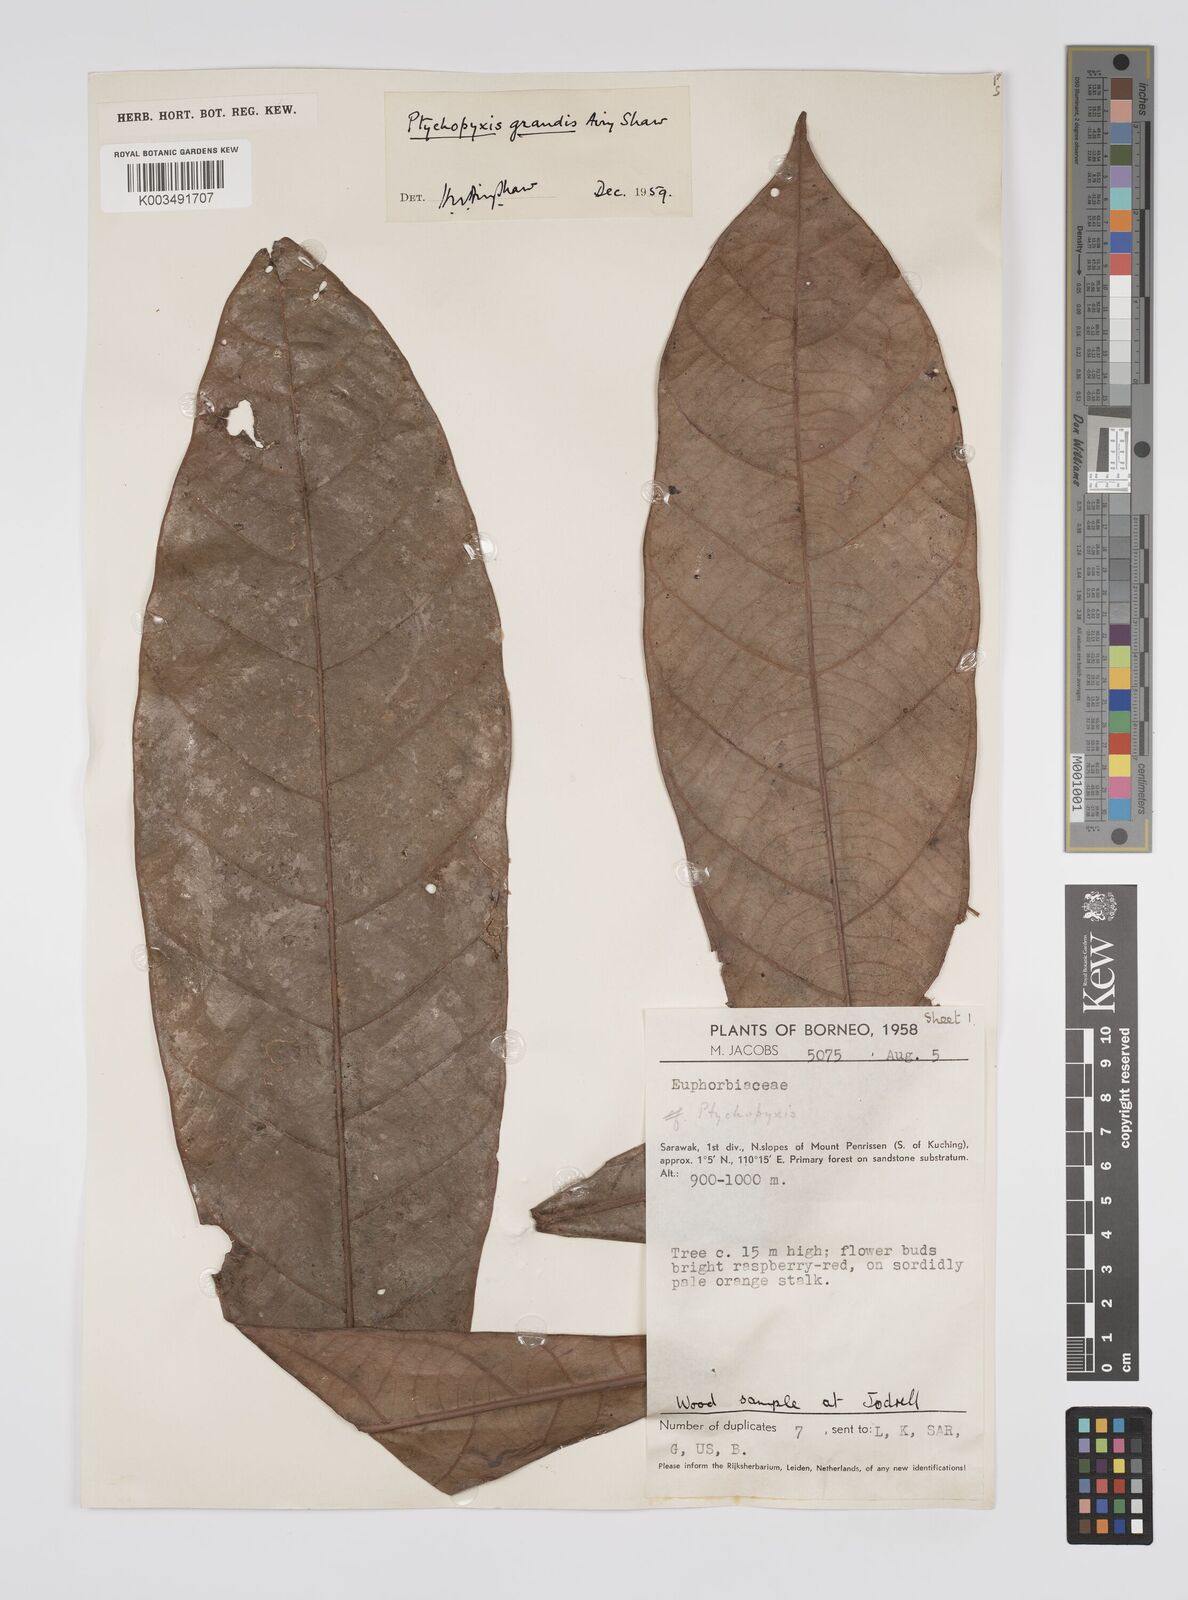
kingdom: Plantae
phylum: Tracheophyta
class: Magnoliopsida
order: Malpighiales
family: Euphorbiaceae
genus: Ptychopyxis
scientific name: Ptychopyxis grandis
